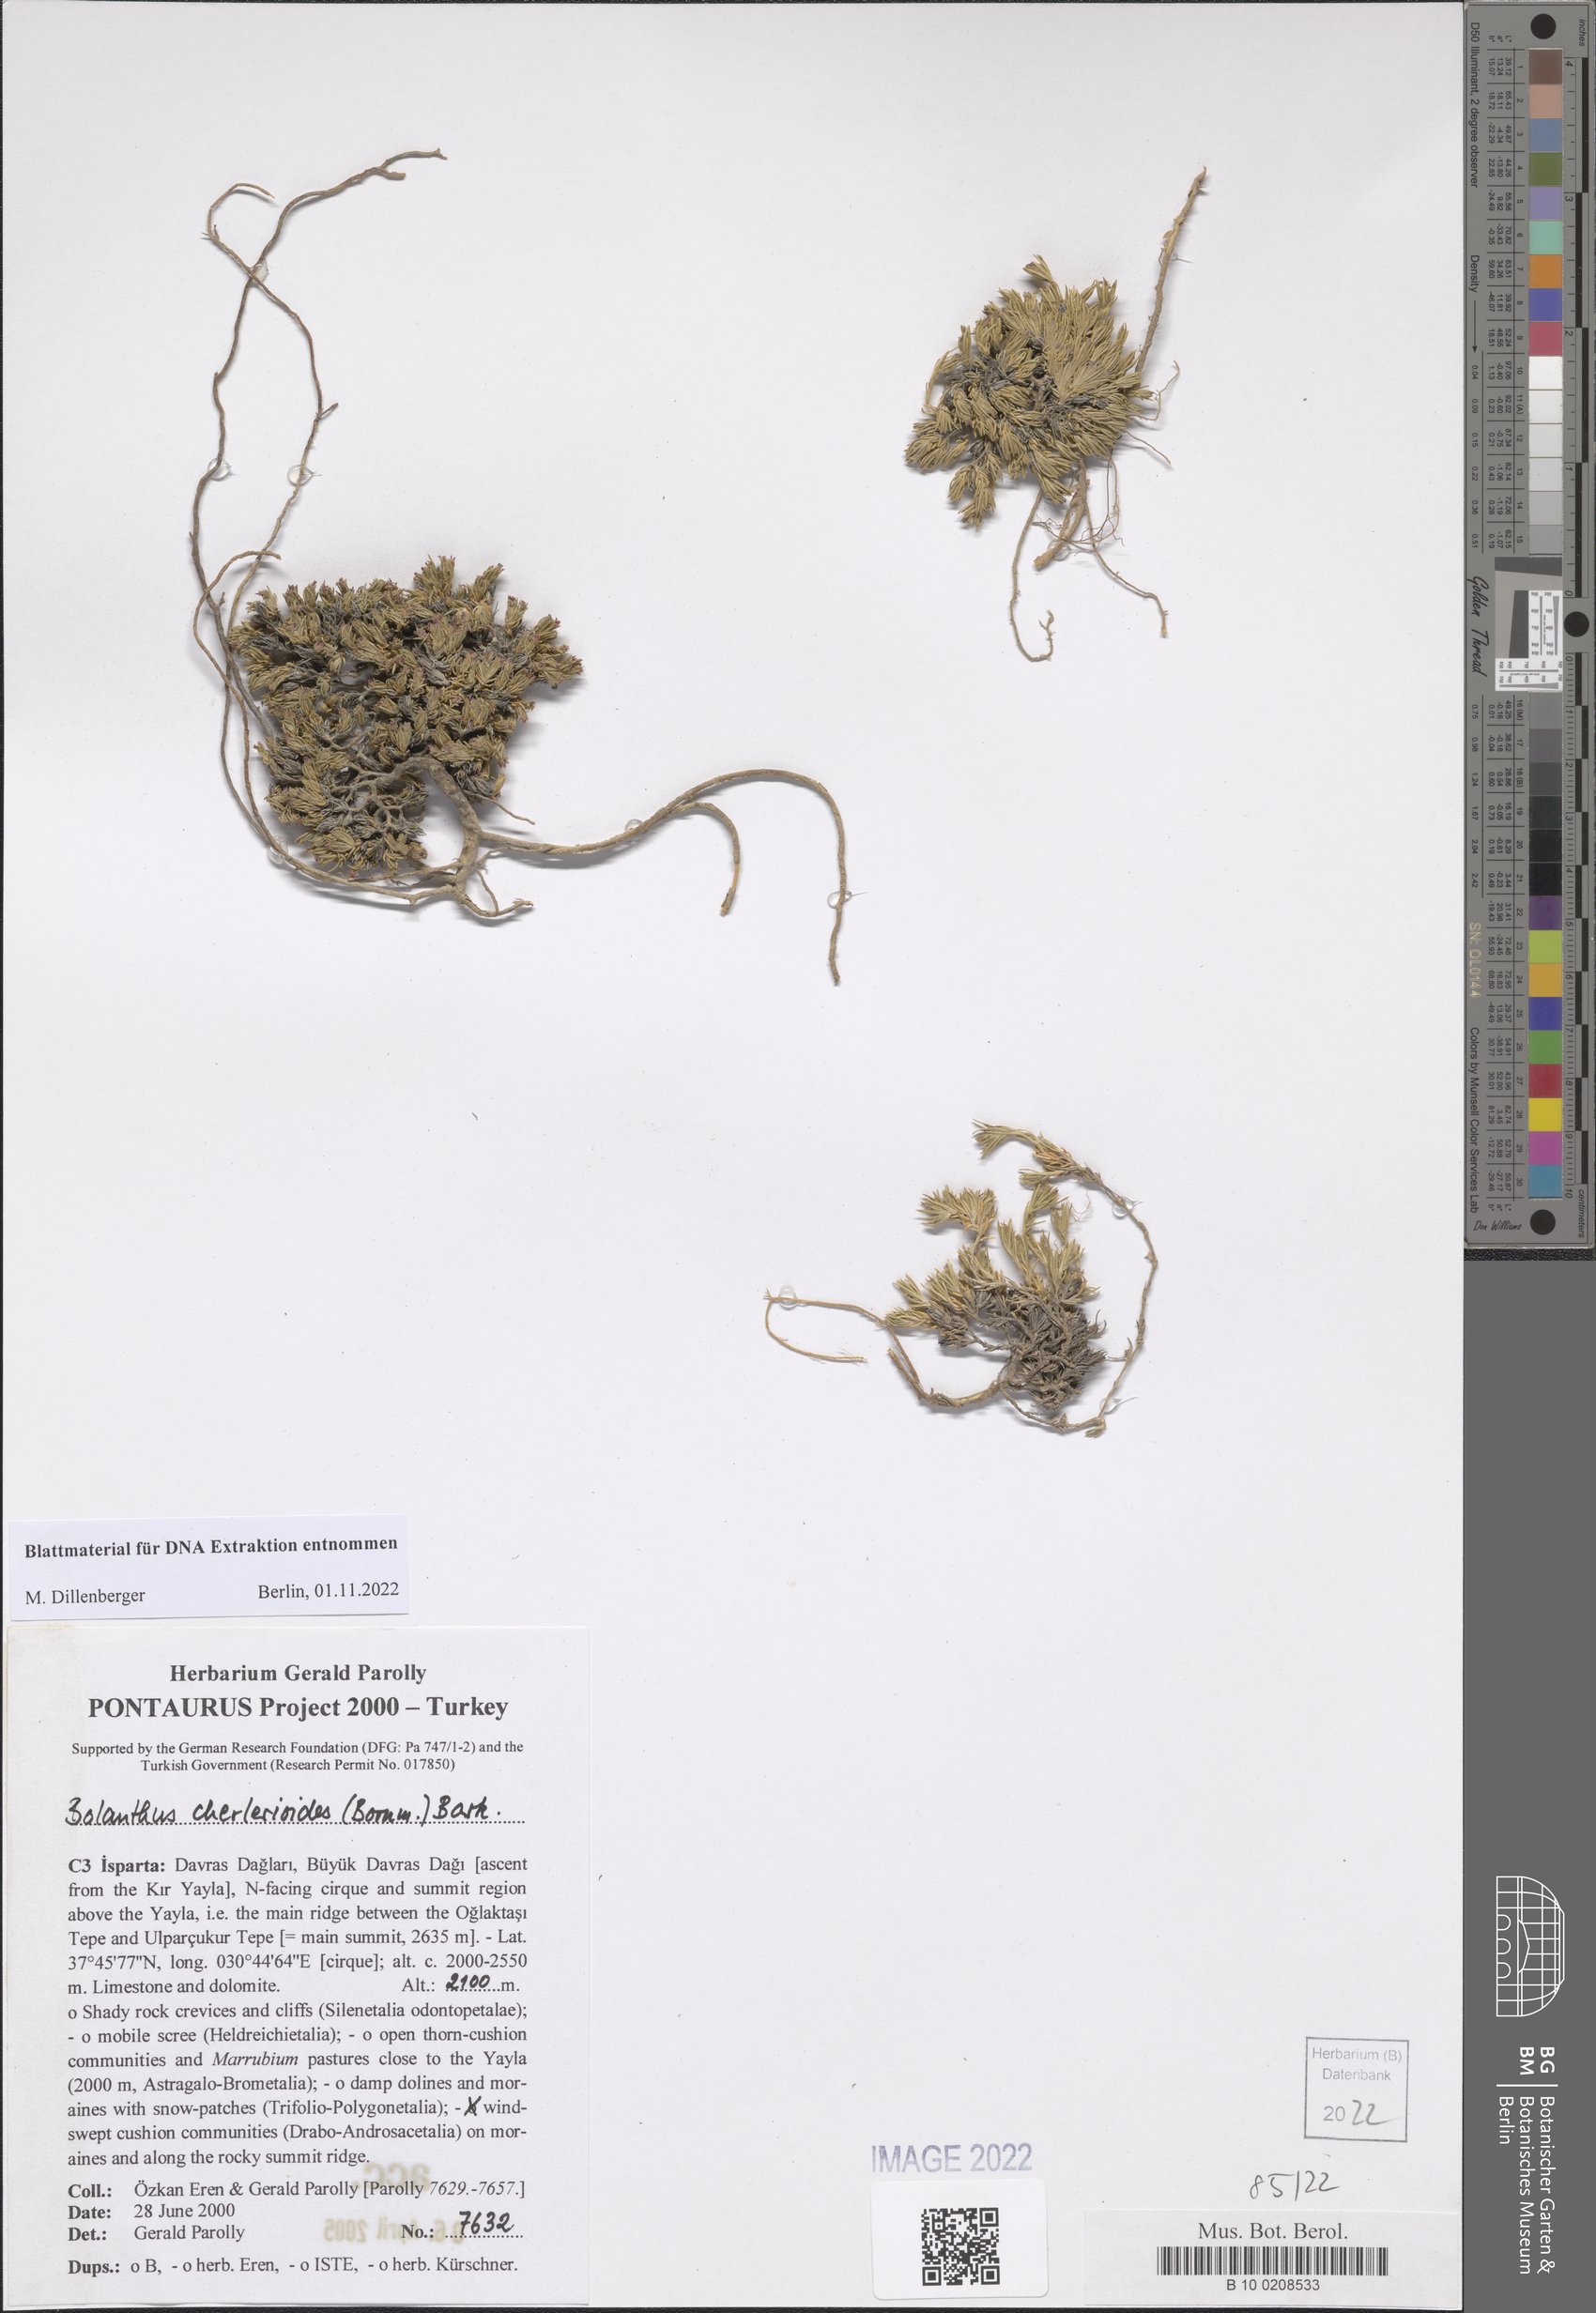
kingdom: Plantae
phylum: Tracheophyta
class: Magnoliopsida
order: Caryophyllales
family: Caryophyllaceae
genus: Bolanthus
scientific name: Bolanthus cherlerioides
